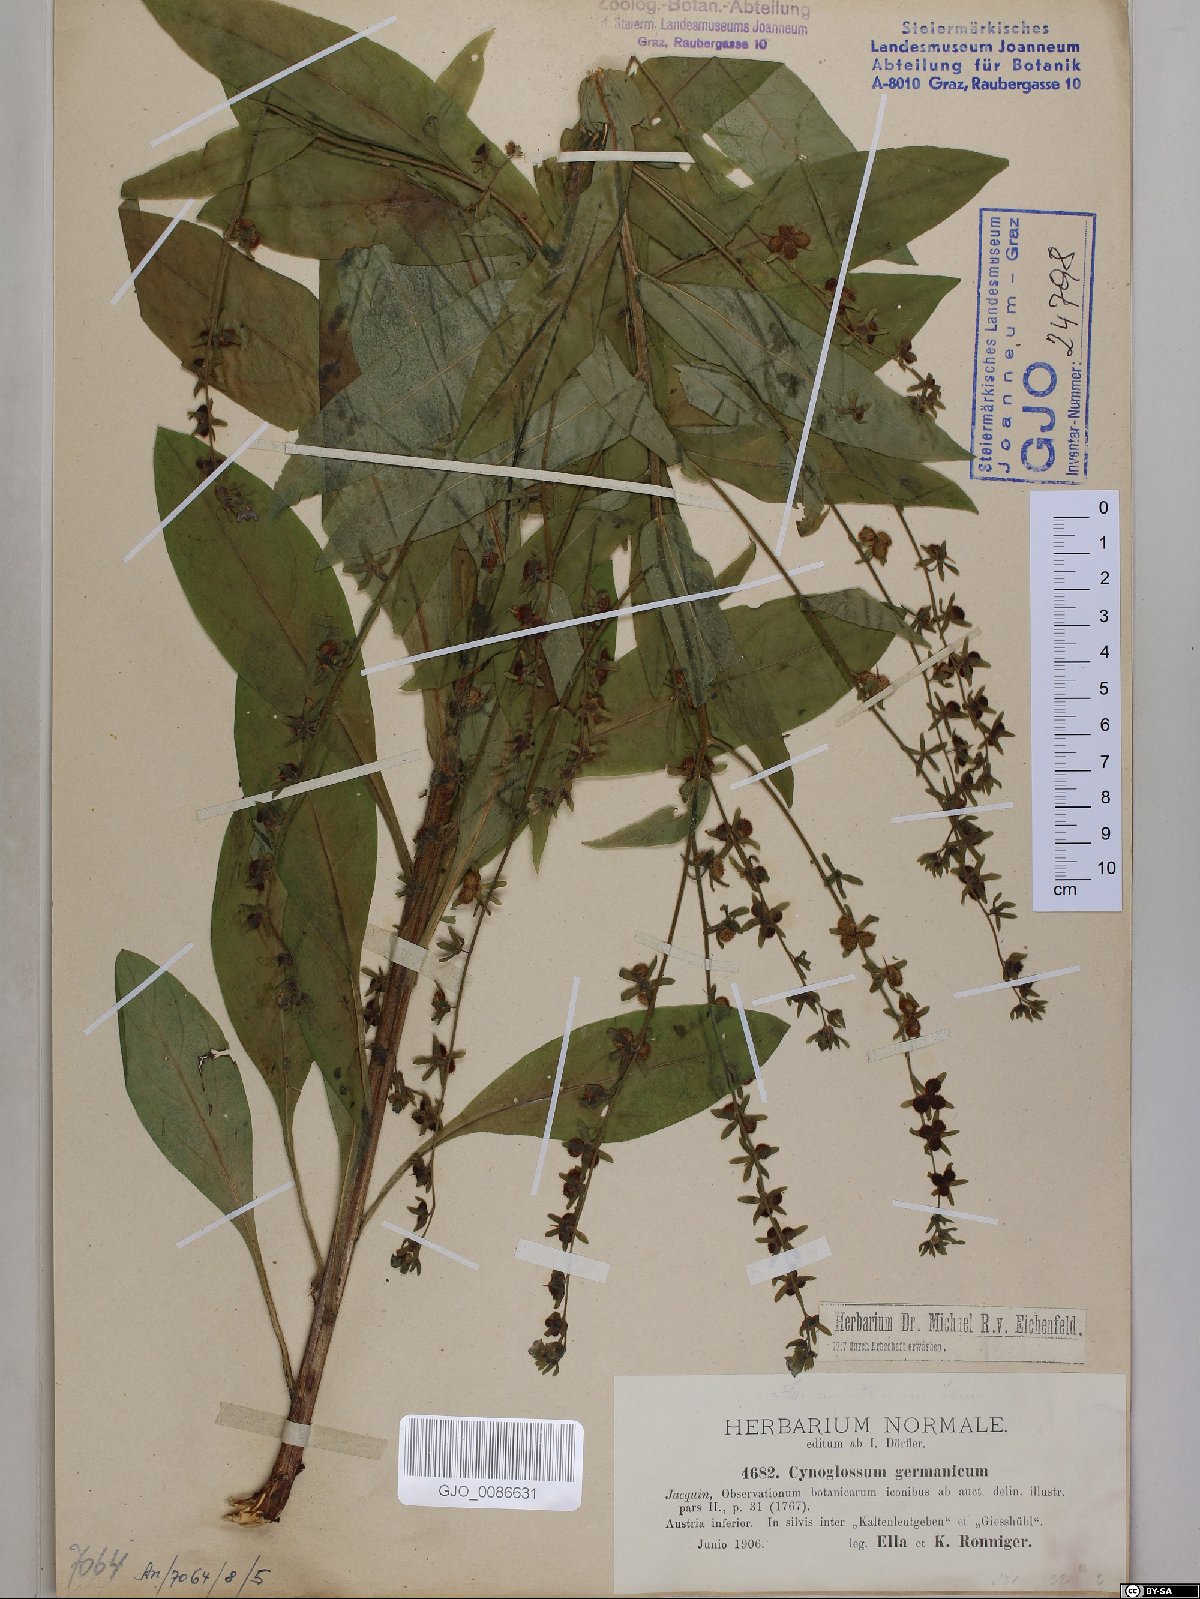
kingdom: Plantae
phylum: Tracheophyta
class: Magnoliopsida
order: Boraginales
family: Boraginaceae
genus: Cynoglossum
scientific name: Cynoglossum germanicum
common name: Green hound's-tongue
